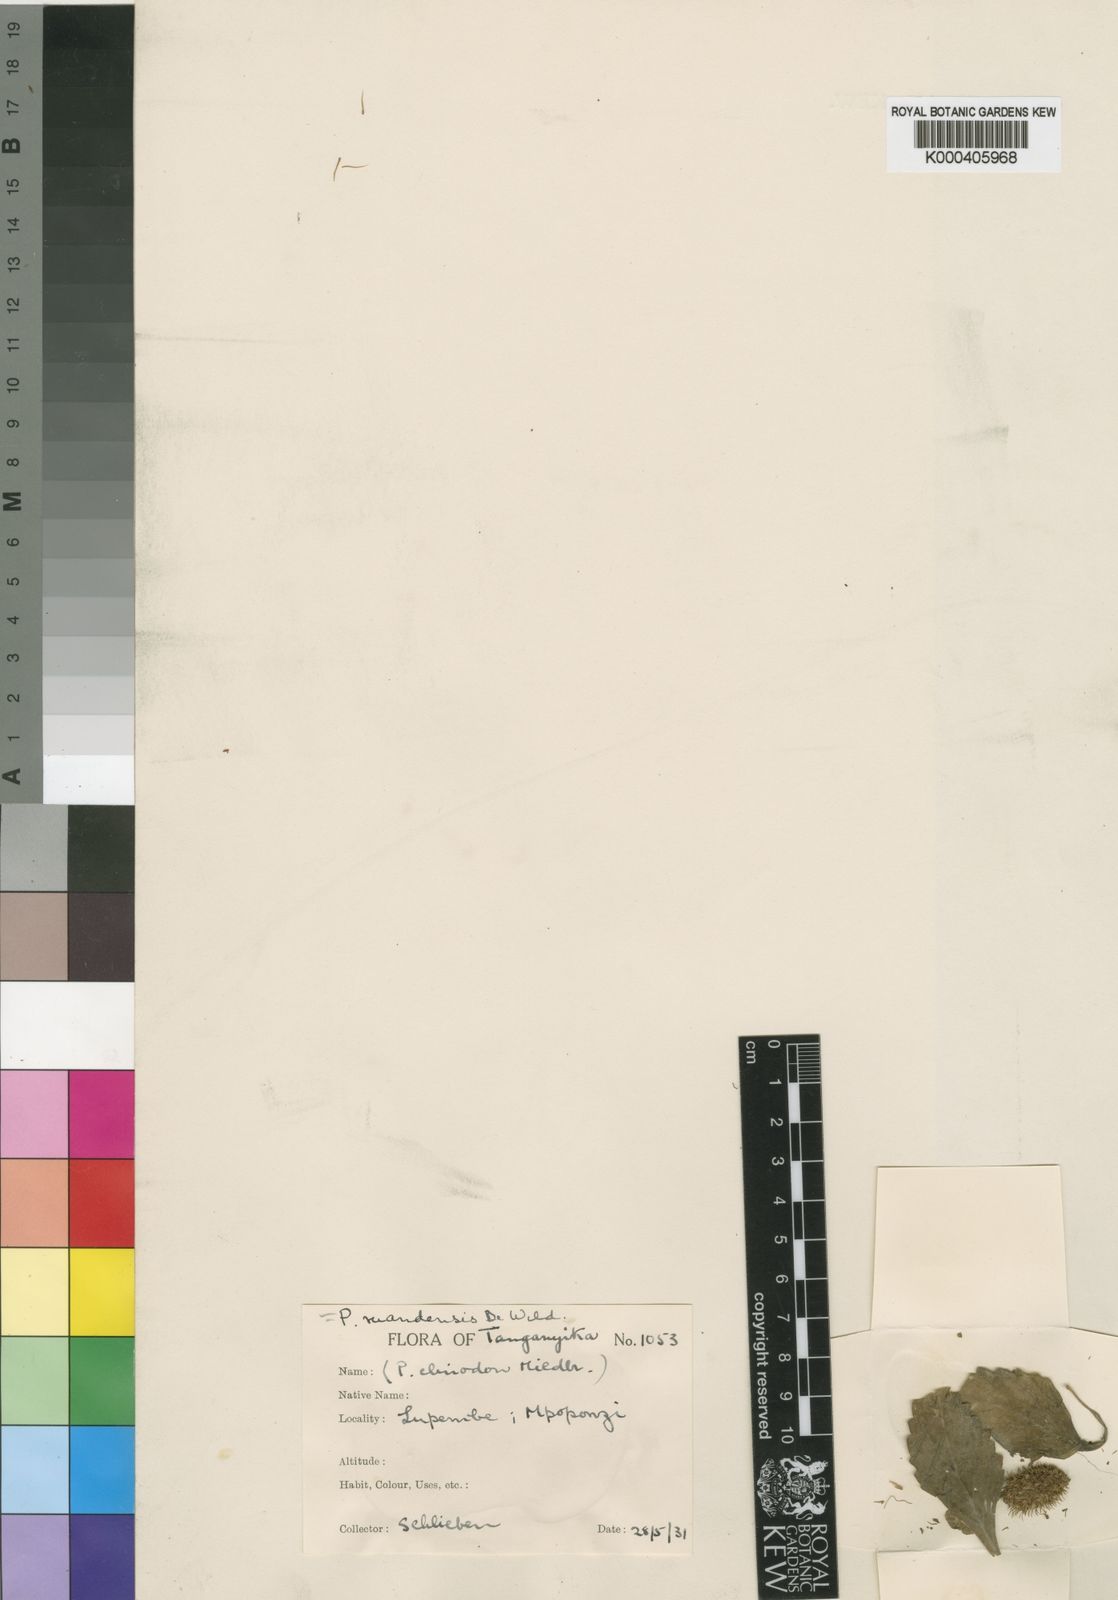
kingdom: Plantae
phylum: Tracheophyta
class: Magnoliopsida
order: Lamiales
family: Lamiaceae
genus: Coleus
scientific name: Coleus ruandensis
